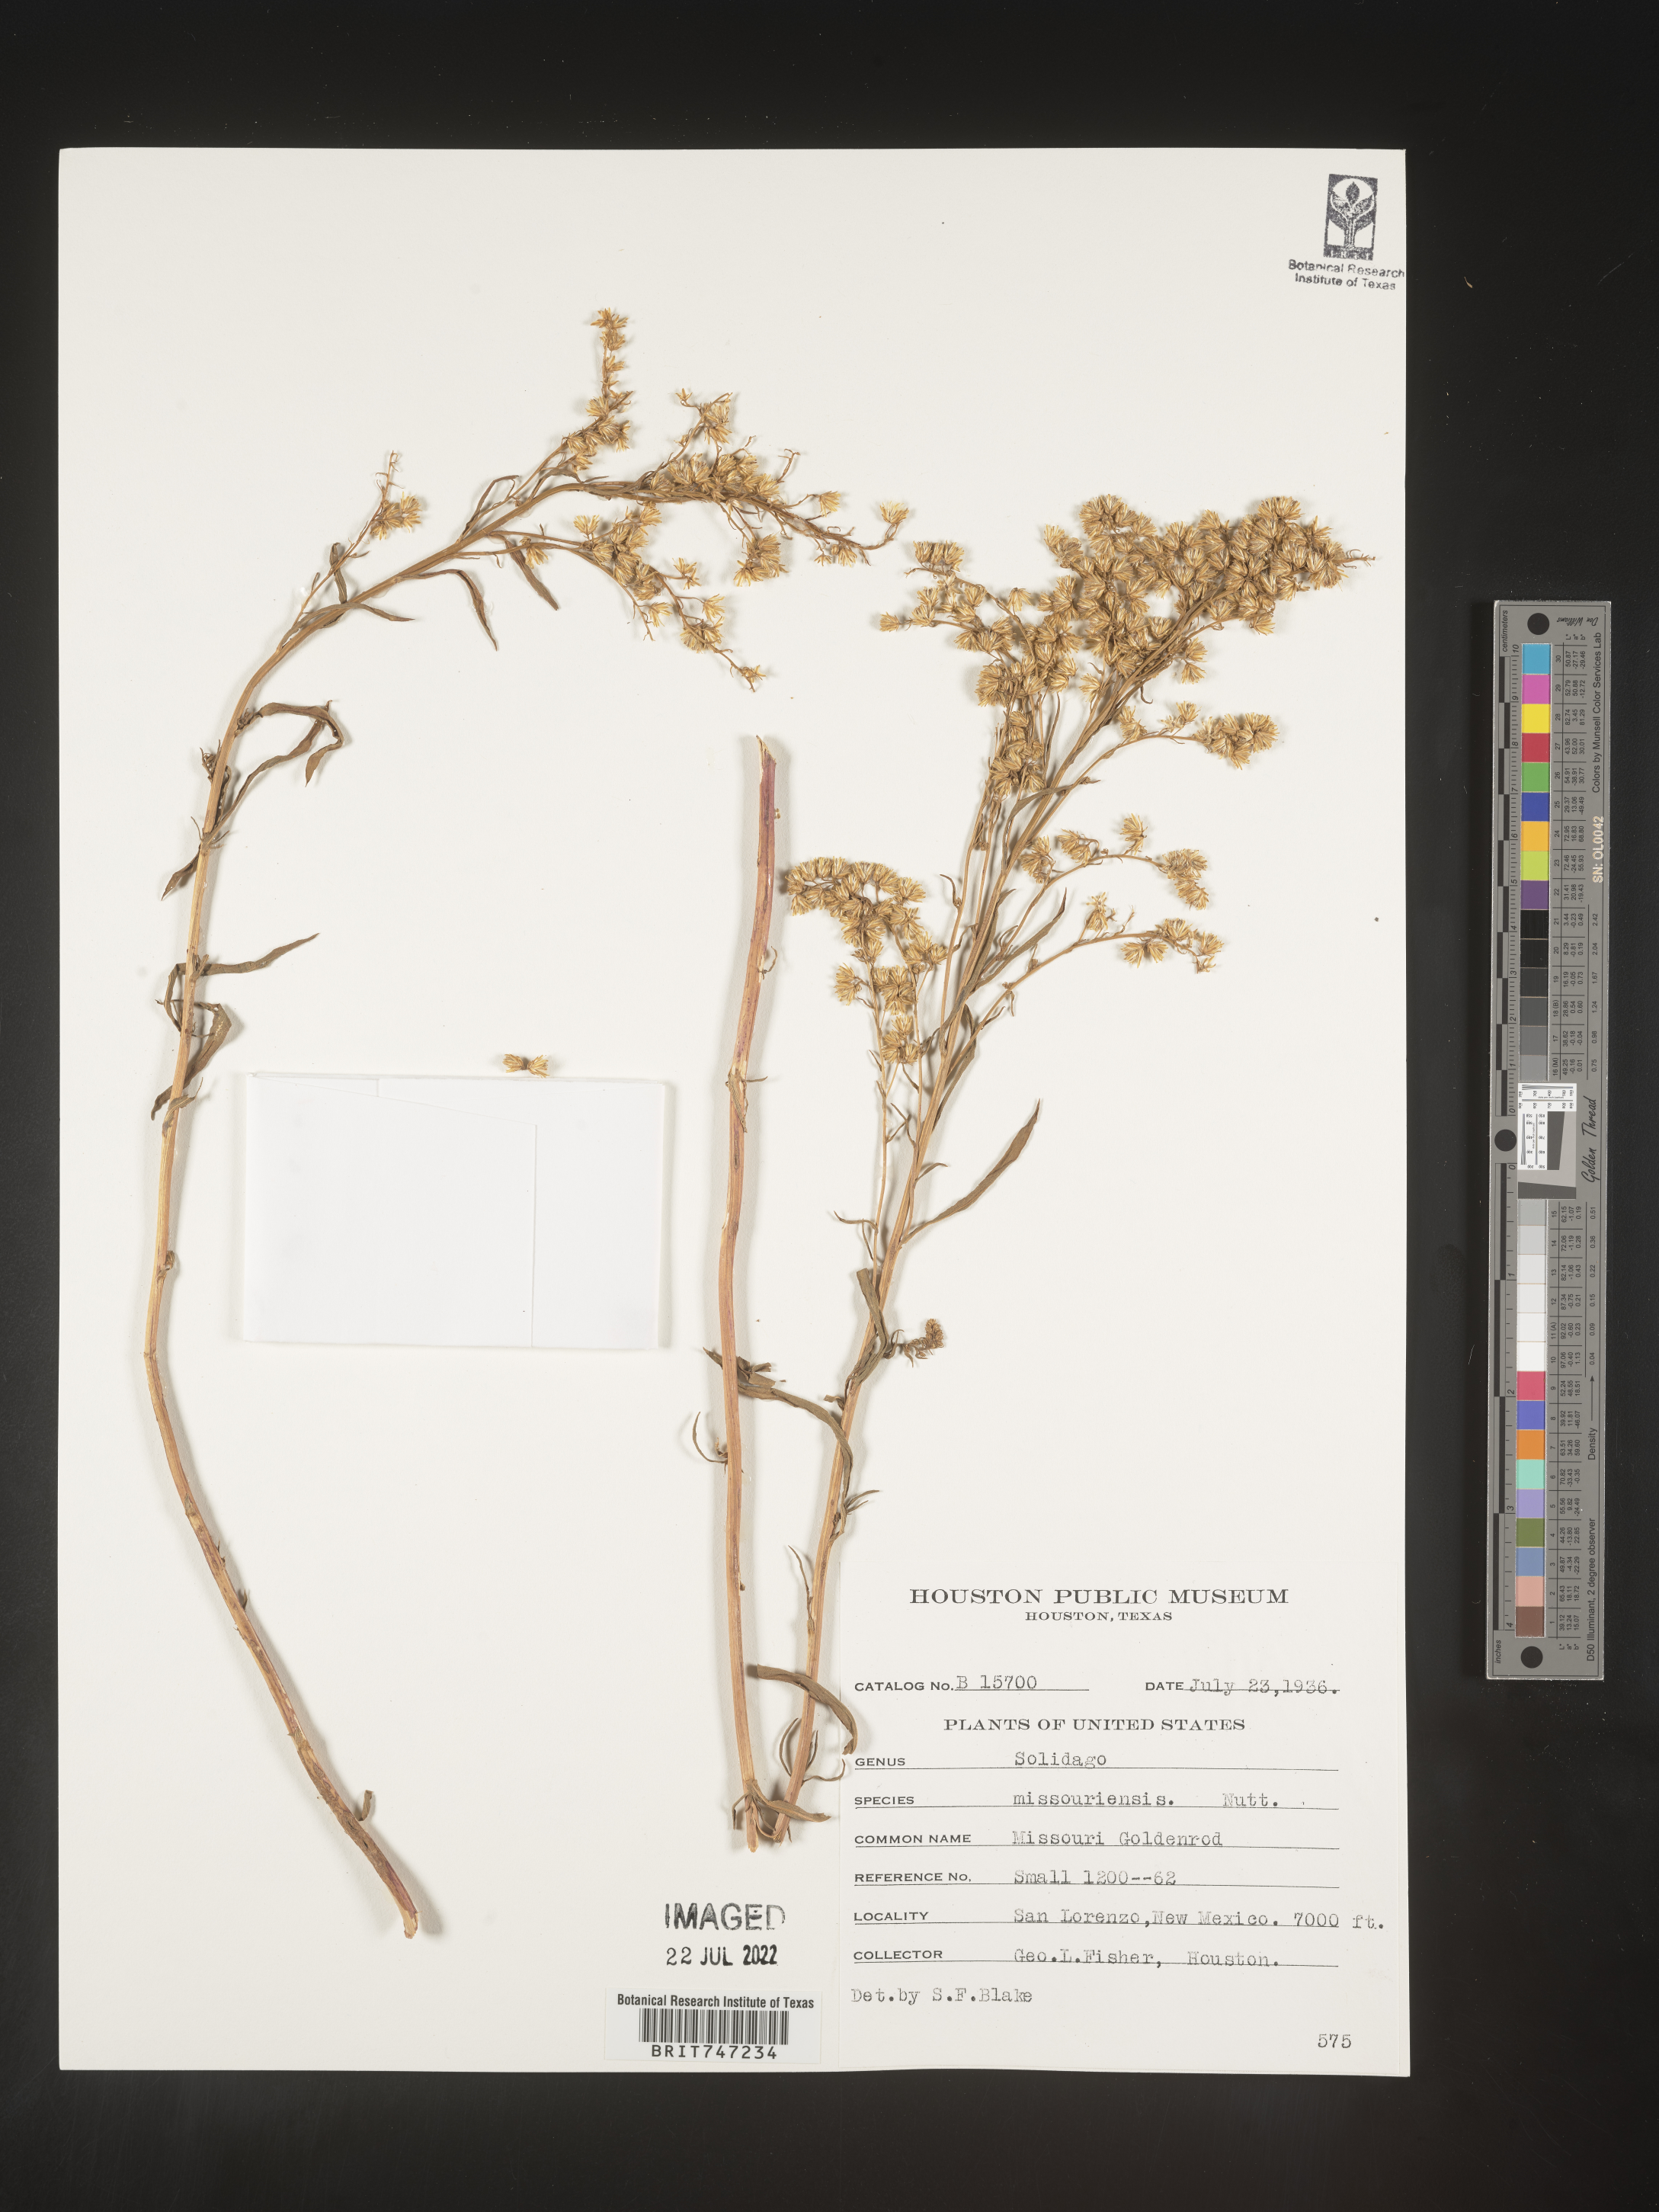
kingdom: Plantae
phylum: Tracheophyta
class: Magnoliopsida
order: Asterales
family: Asteraceae
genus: Solidago
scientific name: Solidago missouriensis
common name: Prairie goldenrod
